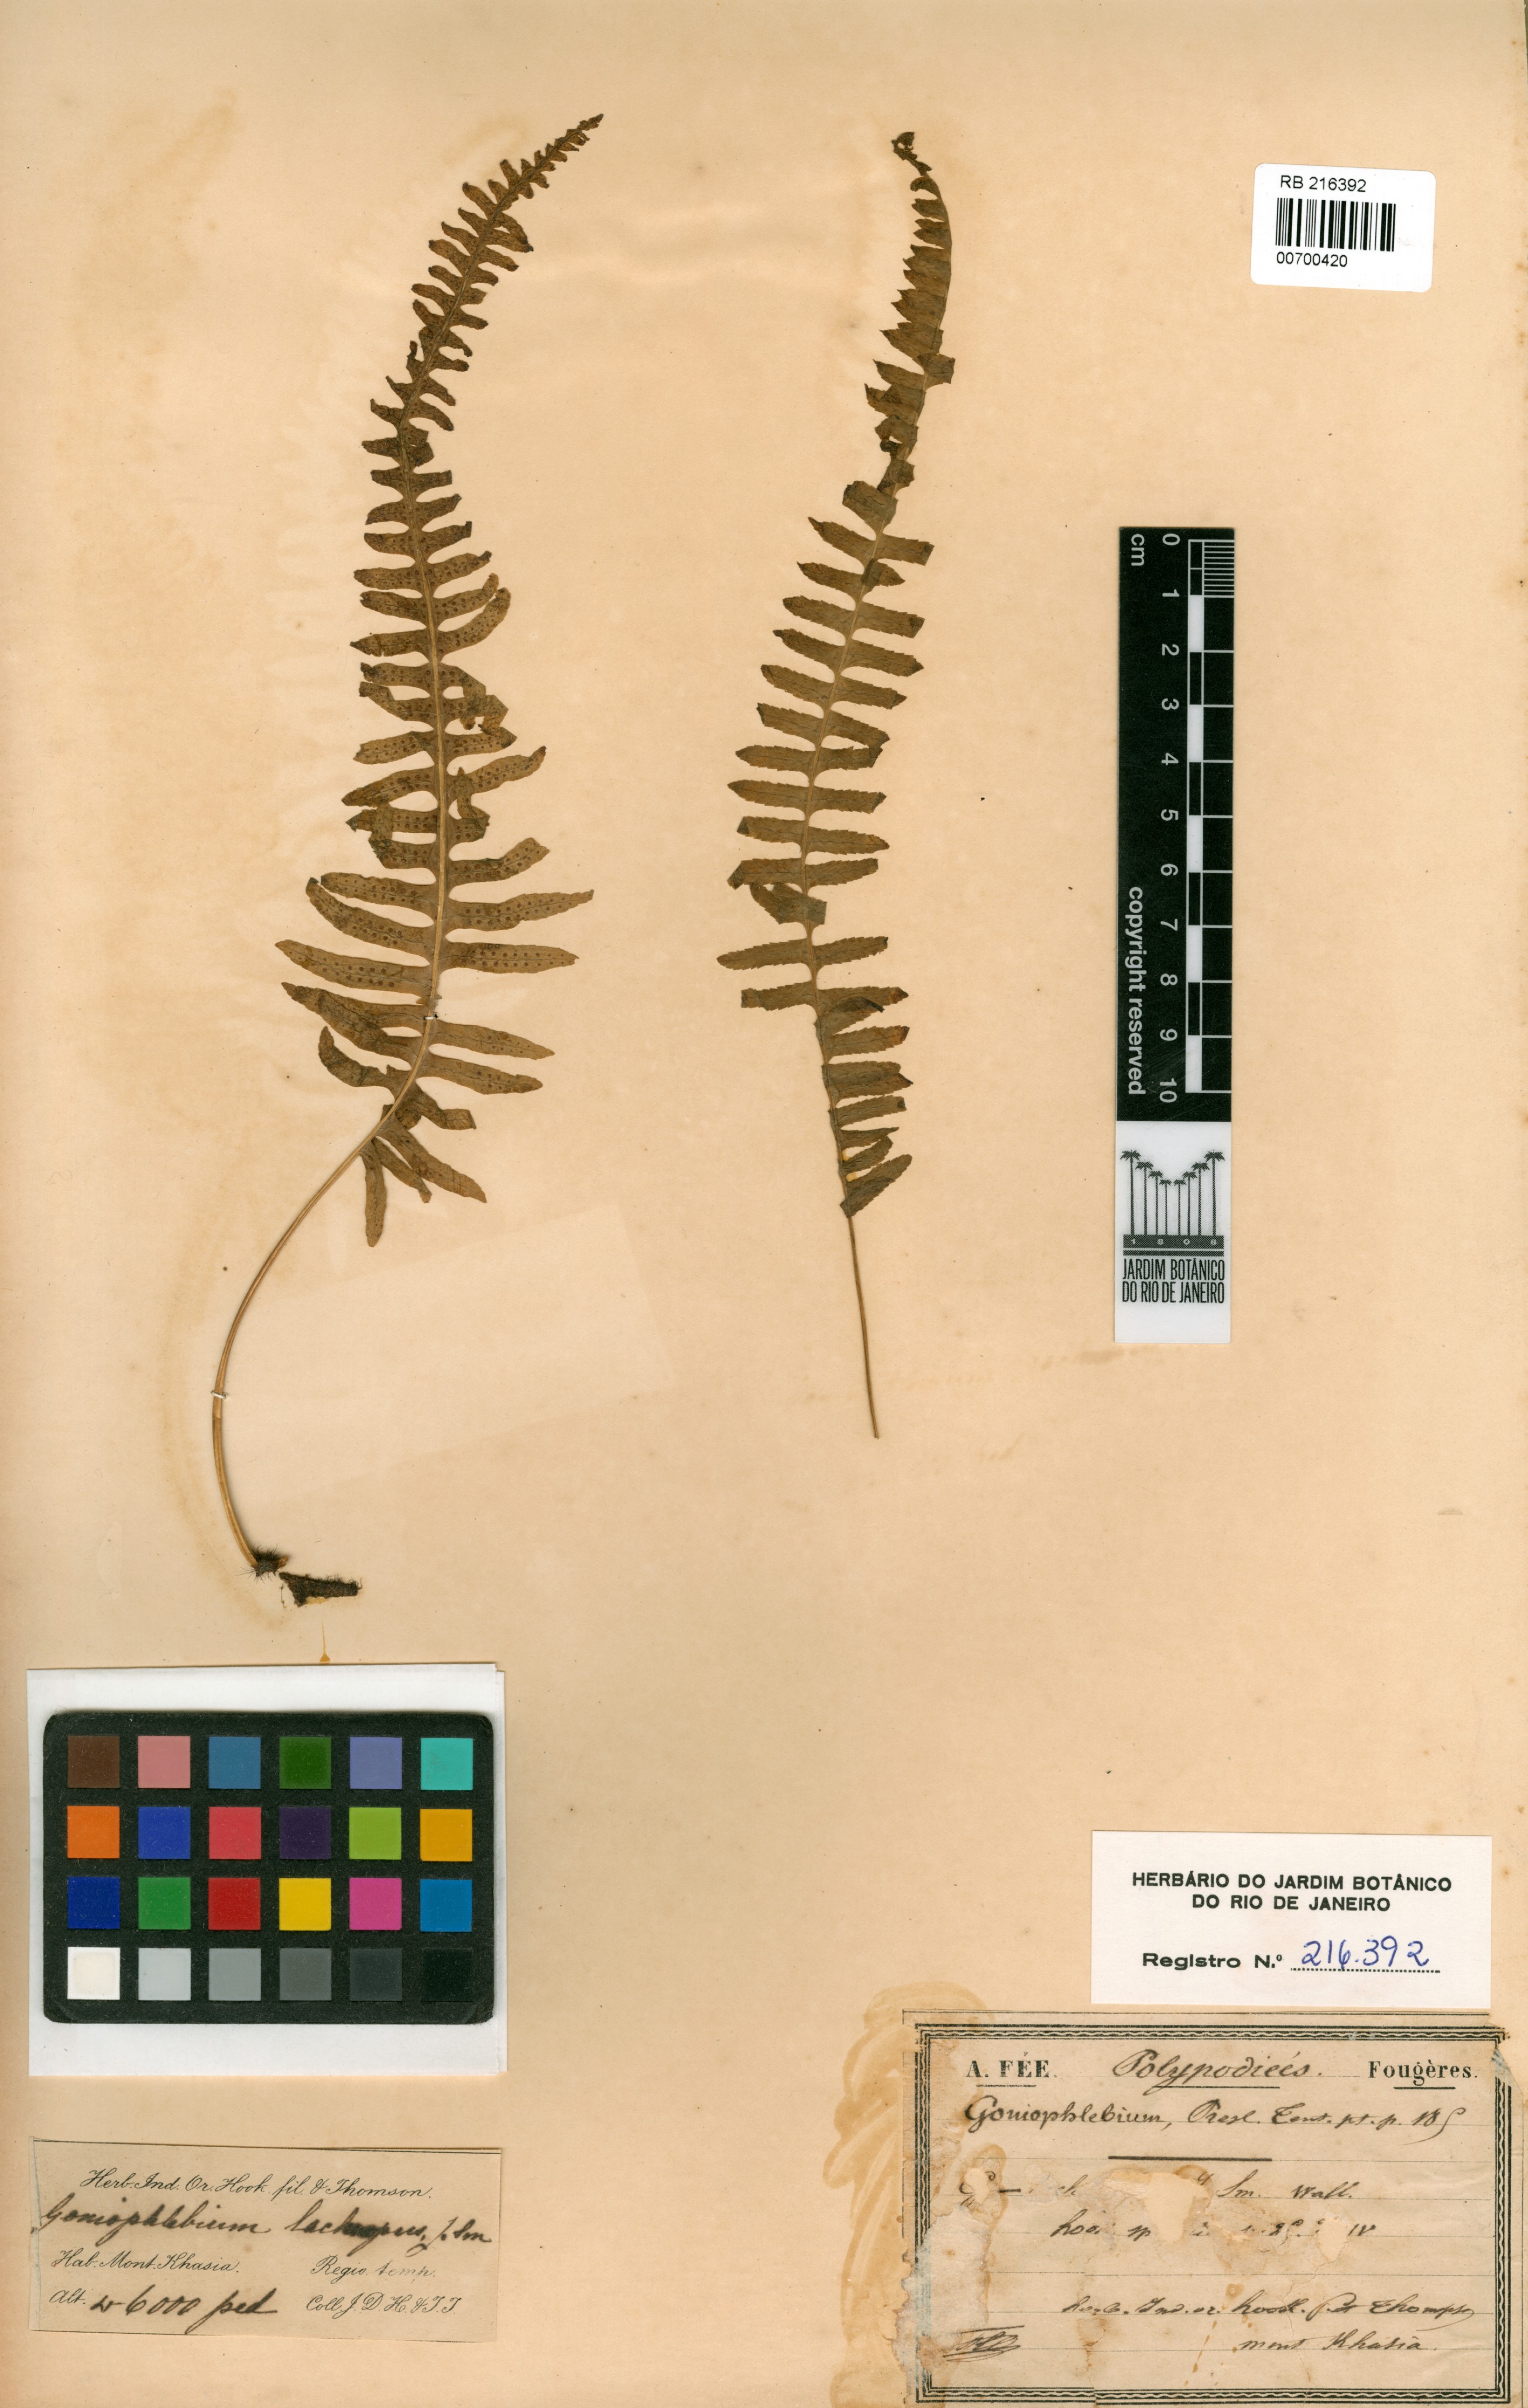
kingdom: Plantae
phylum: Tracheophyta
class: Polypodiopsida
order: Polypodiales
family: Polypodiaceae
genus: Goniophlebium
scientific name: Goniophlebium lachnopus
